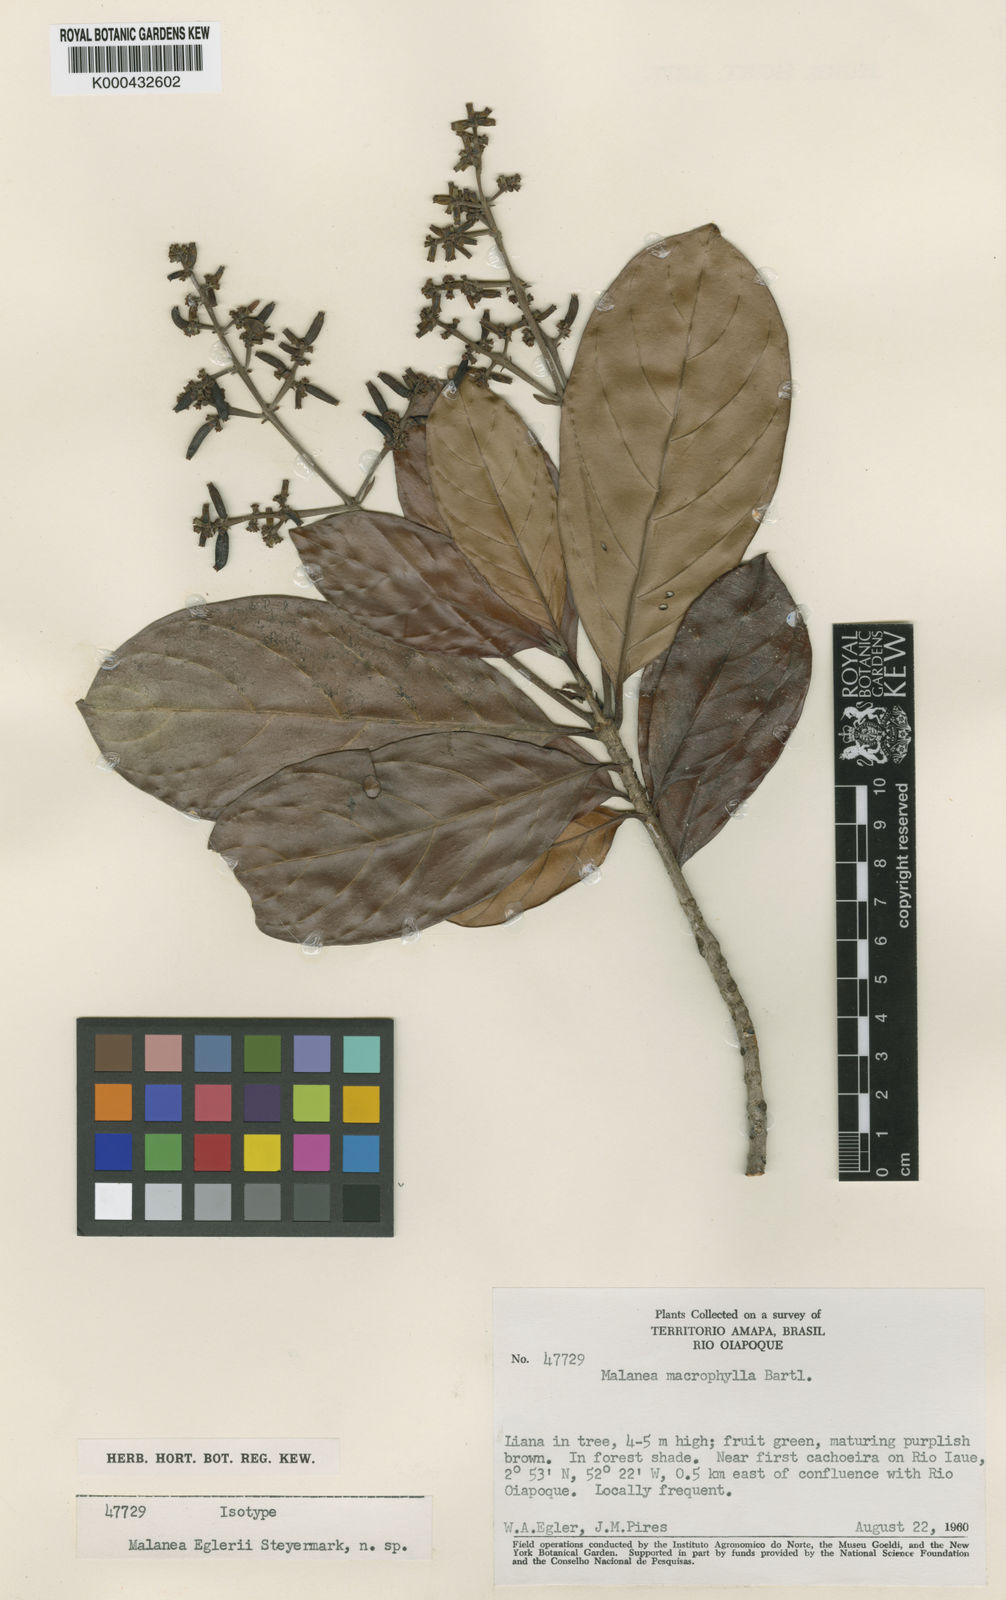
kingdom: Plantae
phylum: Tracheophyta
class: Magnoliopsida
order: Gentianales
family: Rubiaceae
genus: Malanea
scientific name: Malanea egleri
